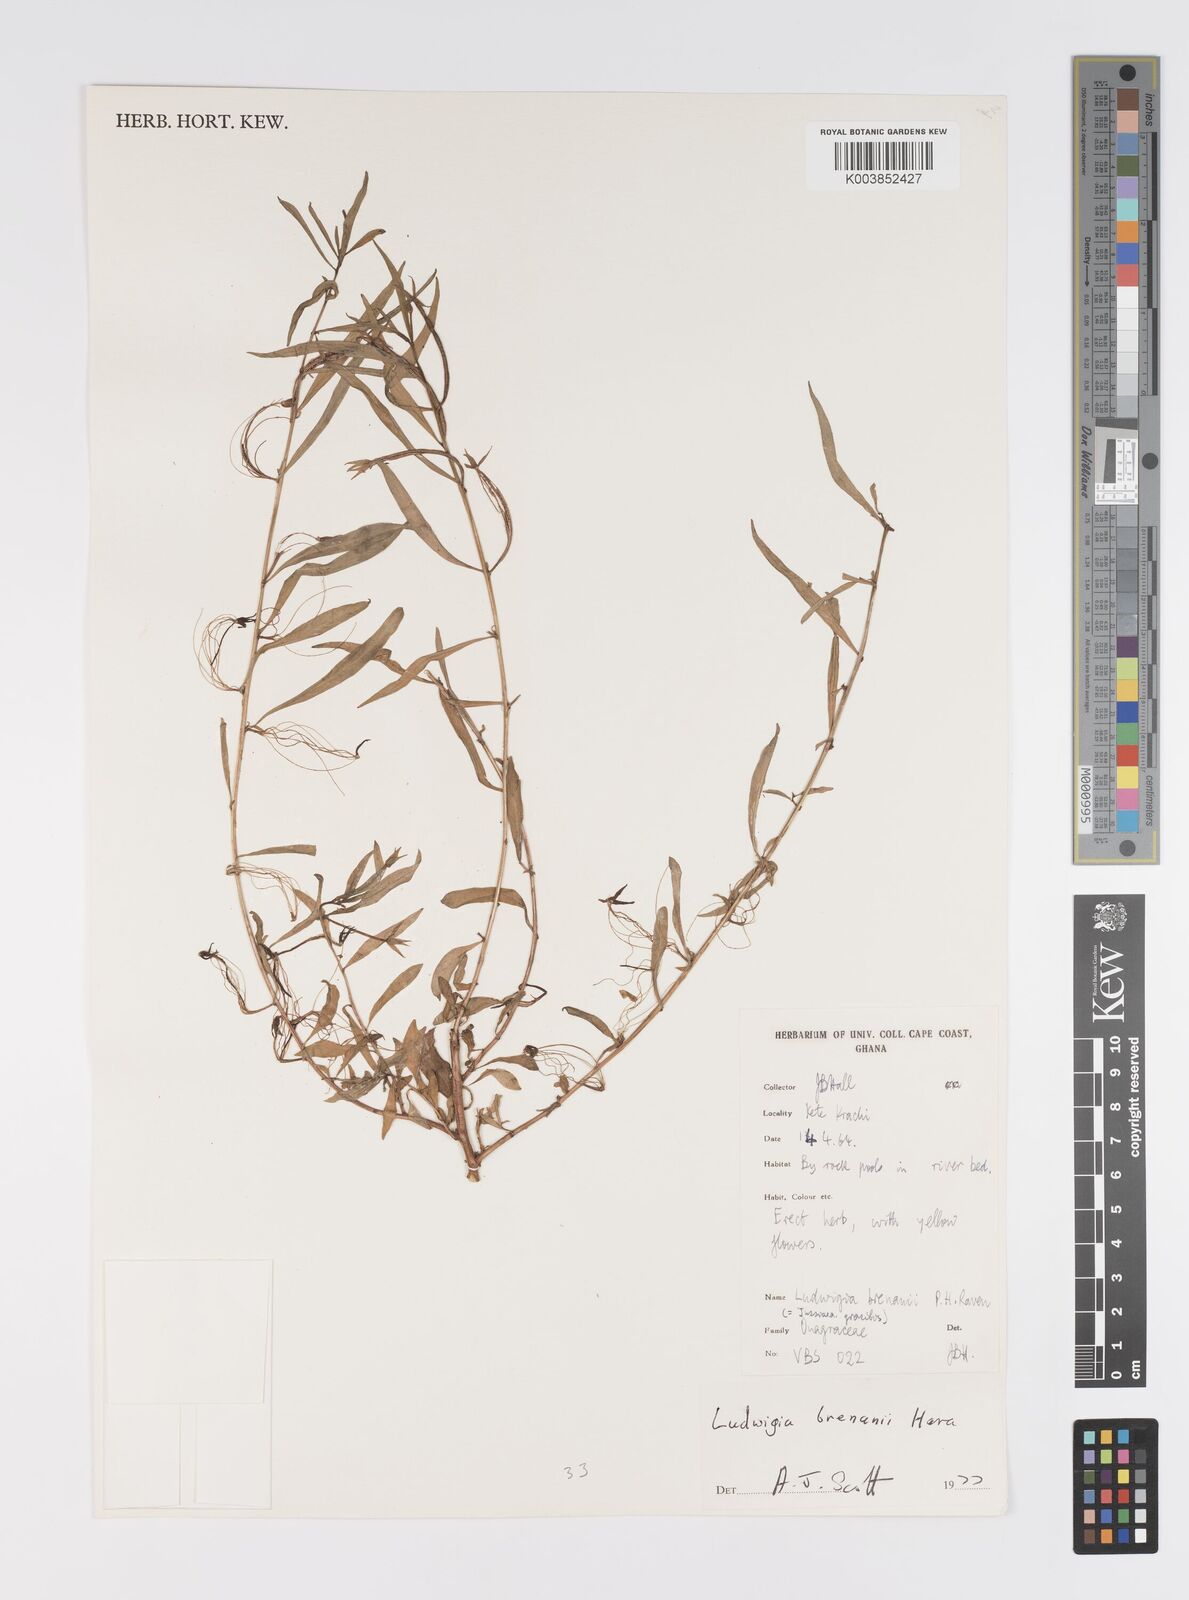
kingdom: Plantae
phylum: Tracheophyta
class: Magnoliopsida
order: Myrtales
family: Onagraceae
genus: Ludwigia
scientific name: Ludwigia brenanii
